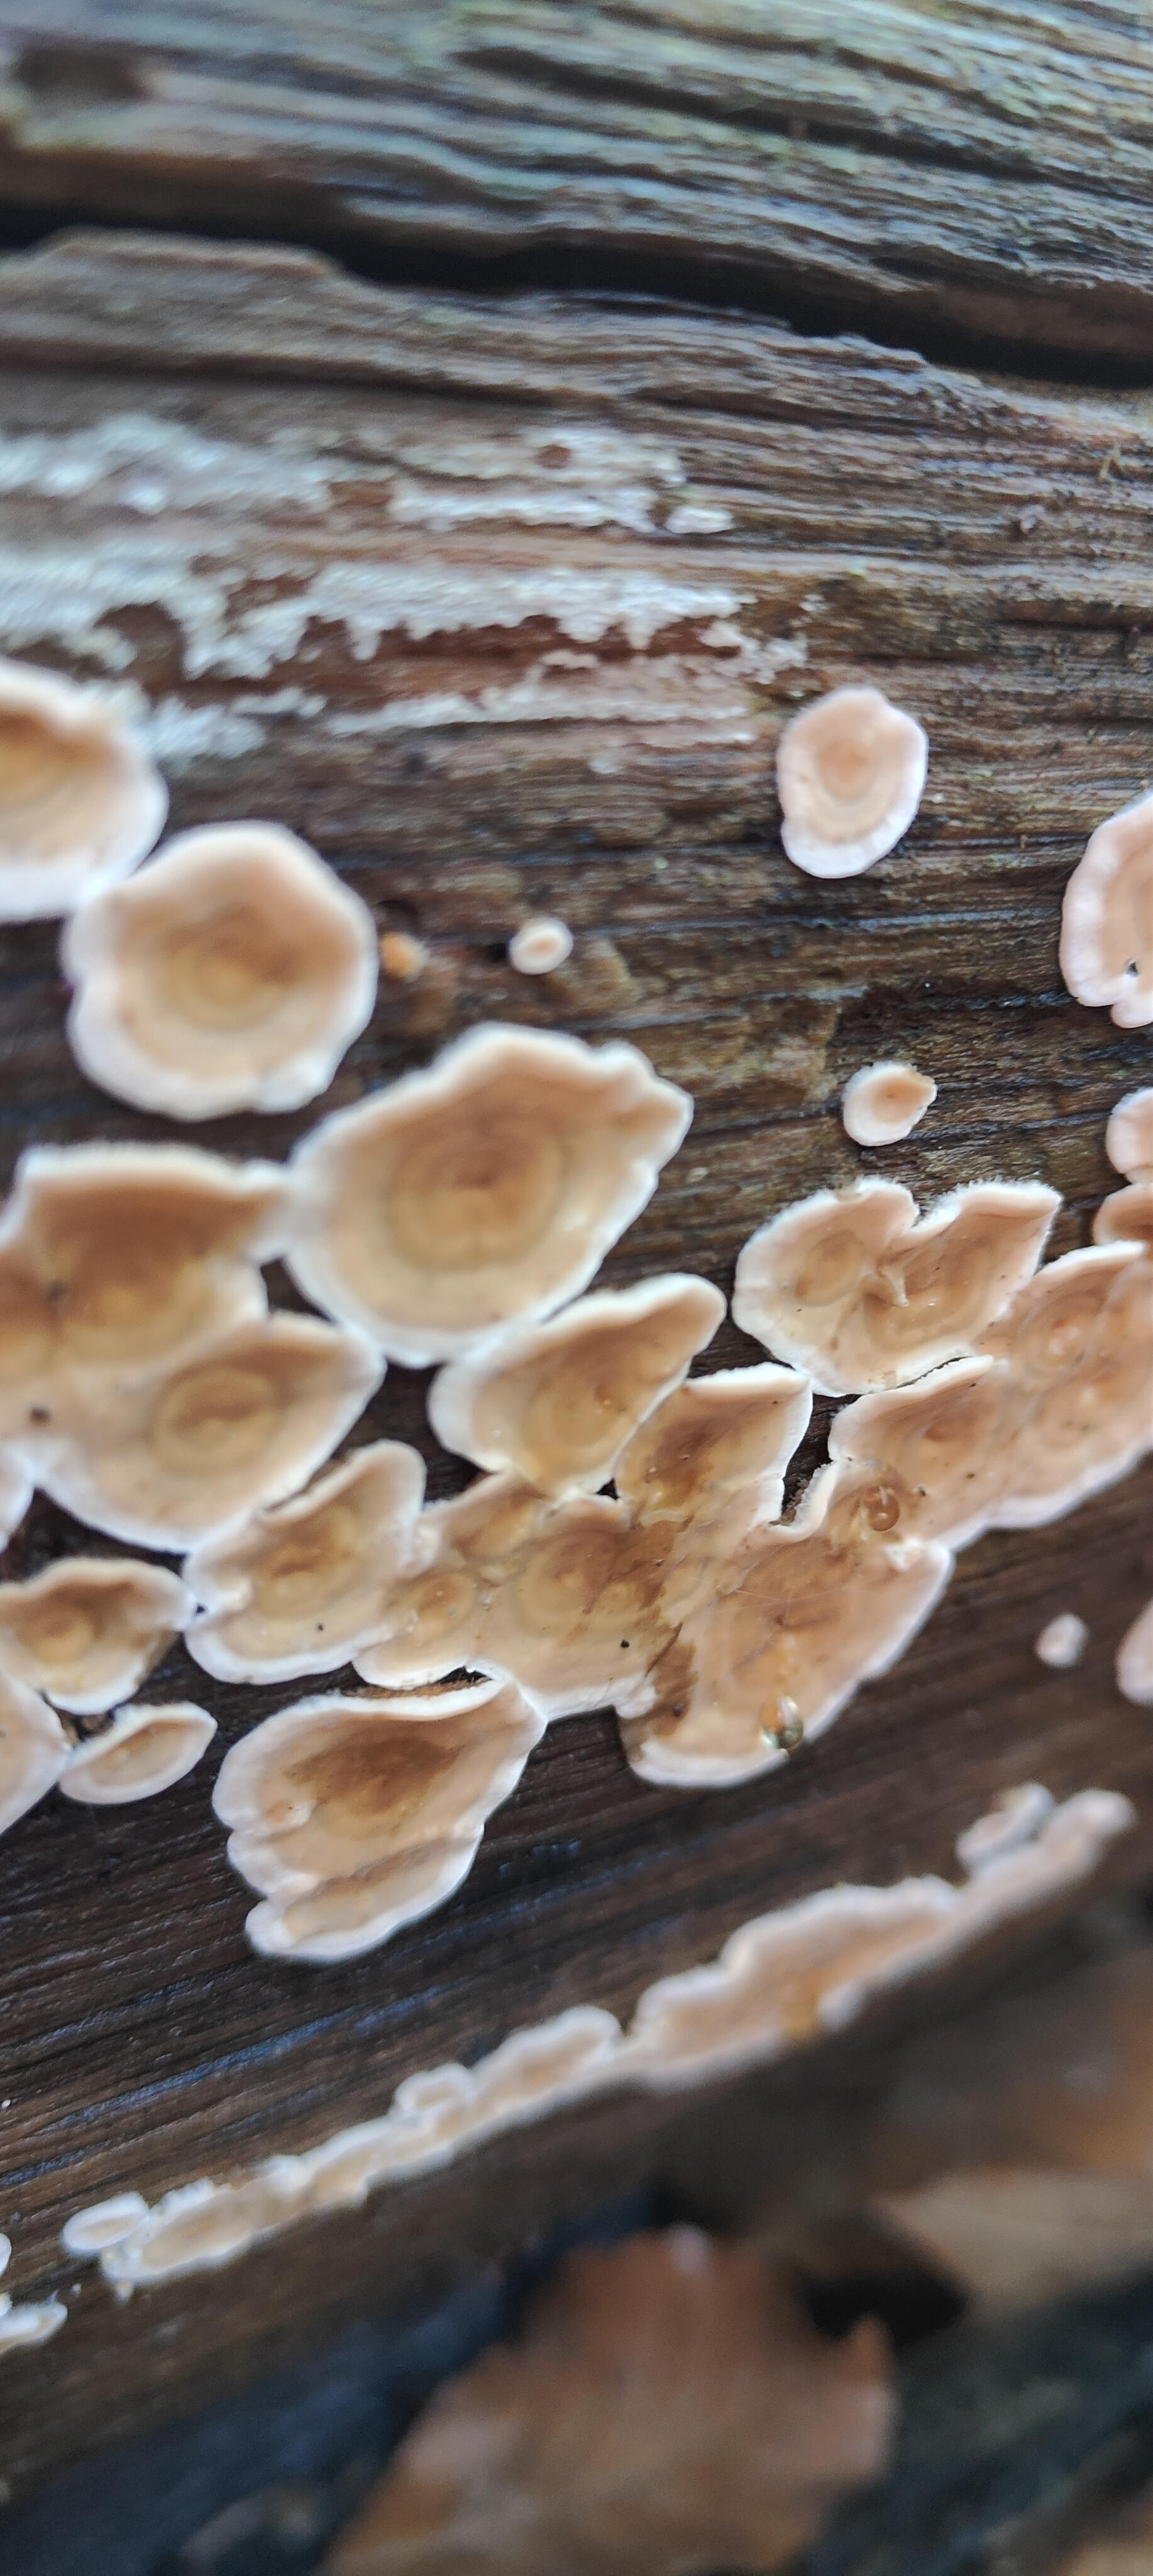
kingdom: Fungi
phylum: Basidiomycota
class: Agaricomycetes
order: Russulales
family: Stereaceae
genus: Stereum
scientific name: Stereum hirsutum
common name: håret lædersvamp
